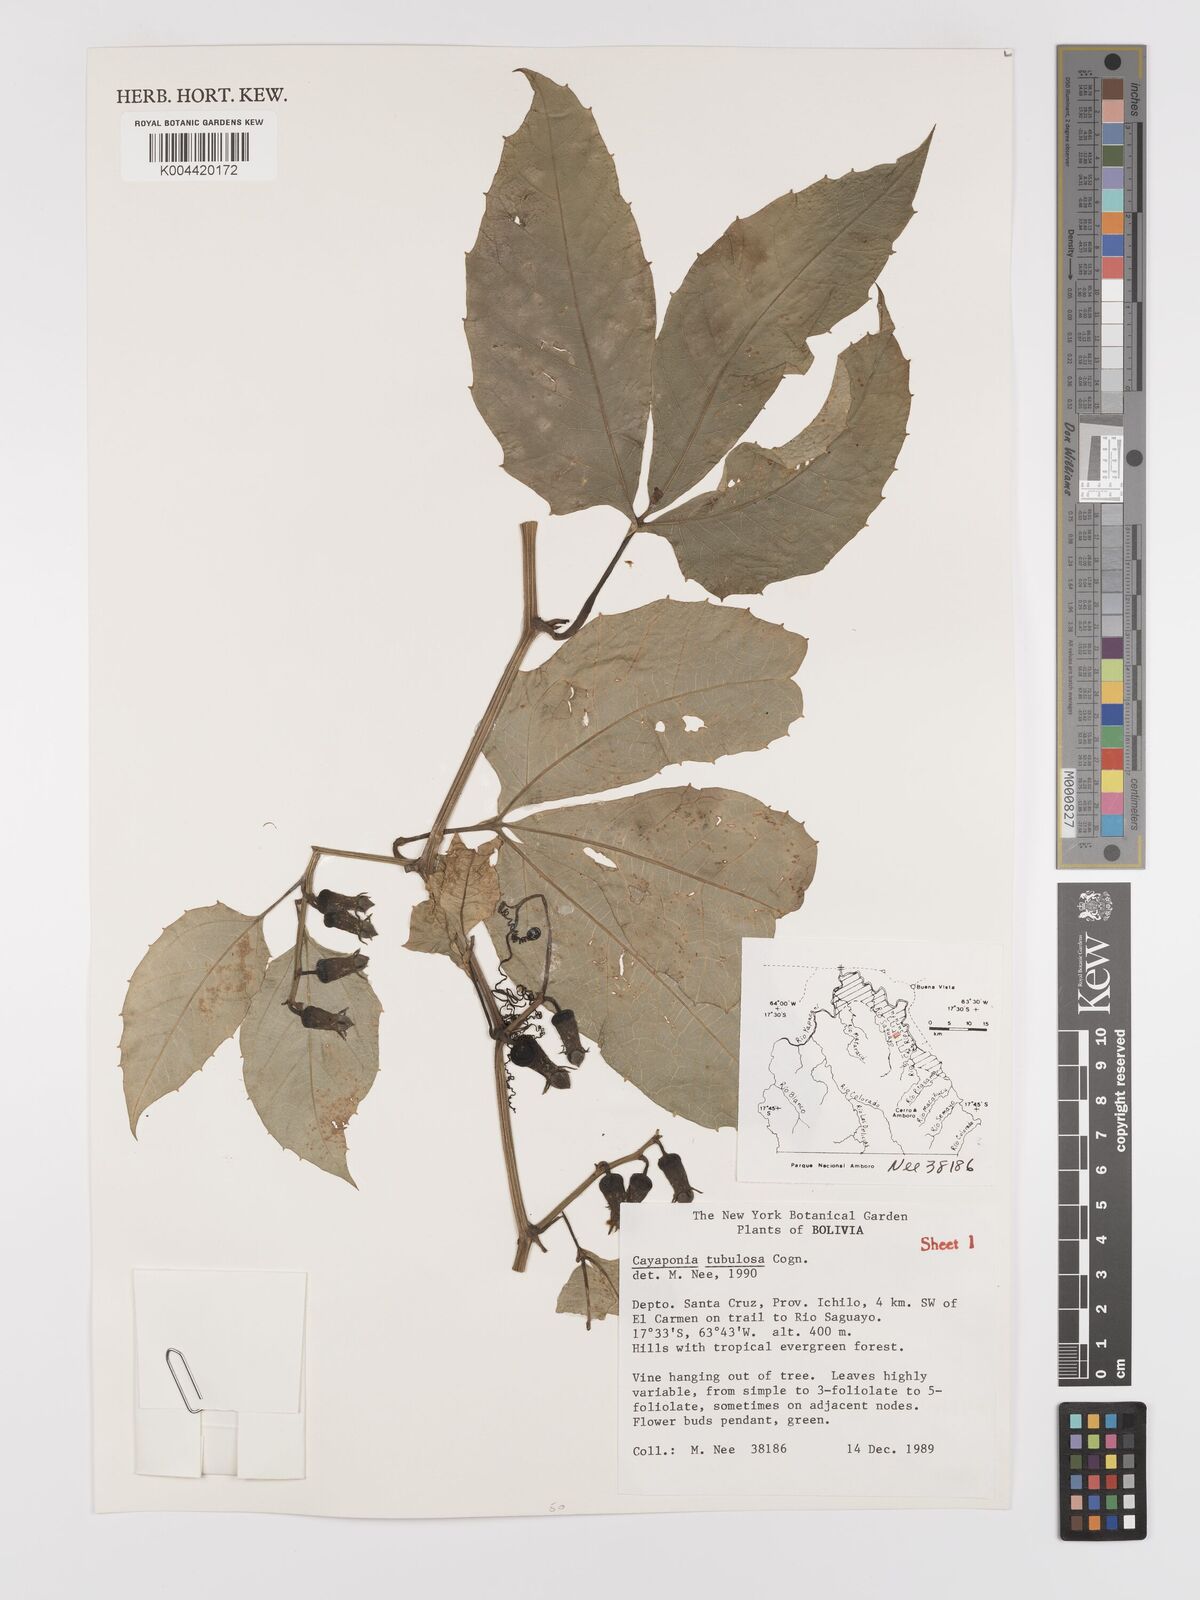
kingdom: Plantae
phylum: Tracheophyta
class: Magnoliopsida
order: Cucurbitales
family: Cucurbitaceae
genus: Cayaponia
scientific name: Cayaponia tubulosa
